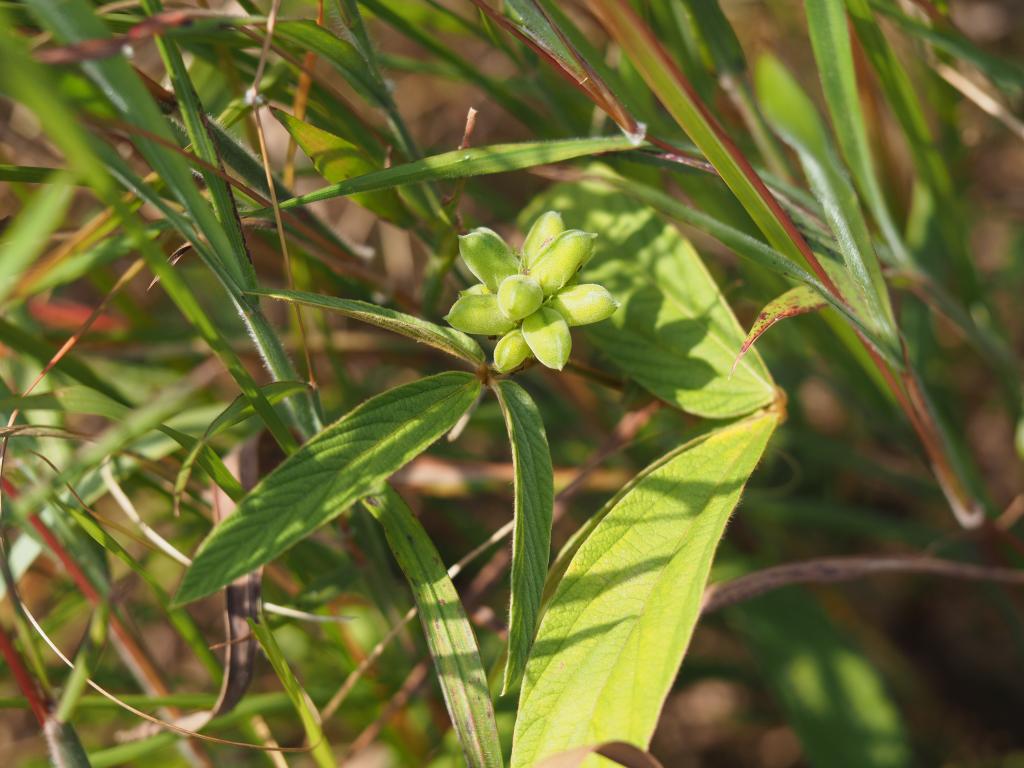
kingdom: Plantae
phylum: Tracheophyta
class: Magnoliopsida
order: Fabales
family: Fabaceae
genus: Flemingia
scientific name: Flemingia macrophylla
